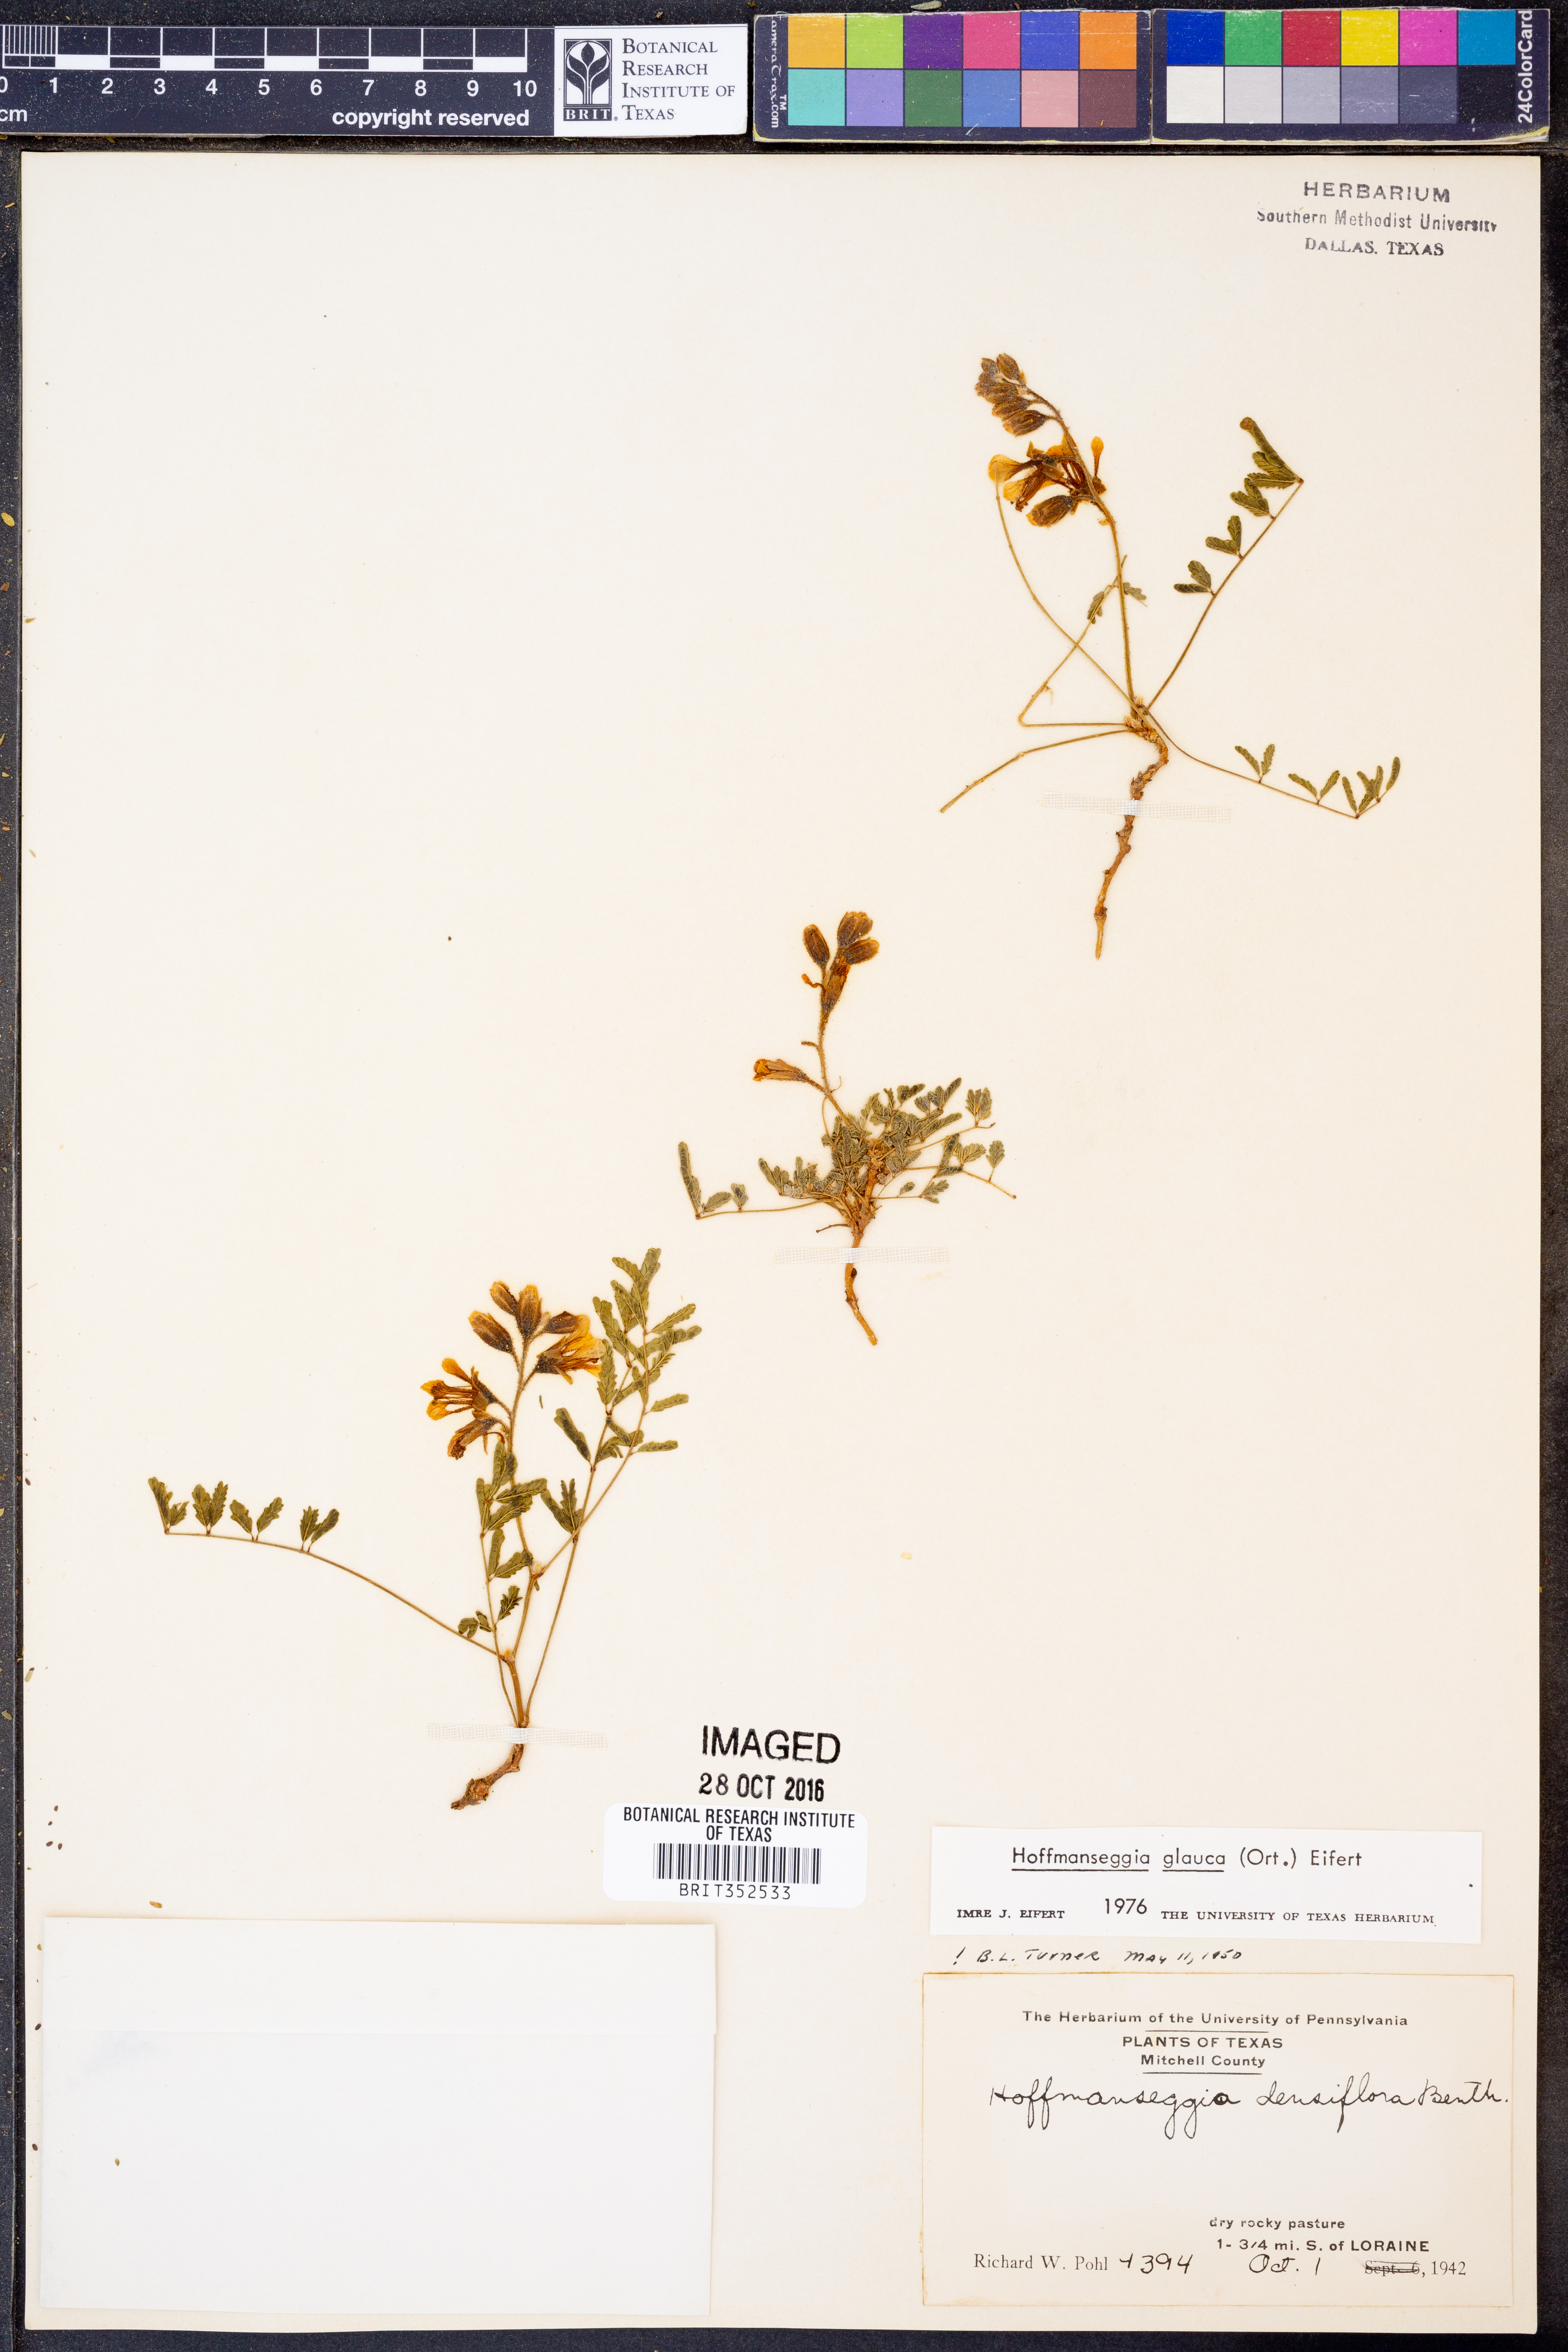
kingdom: Plantae
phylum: Tracheophyta
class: Magnoliopsida
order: Fabales
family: Fabaceae
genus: Hoffmannseggia
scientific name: Hoffmannseggia glauca
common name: Pignut
